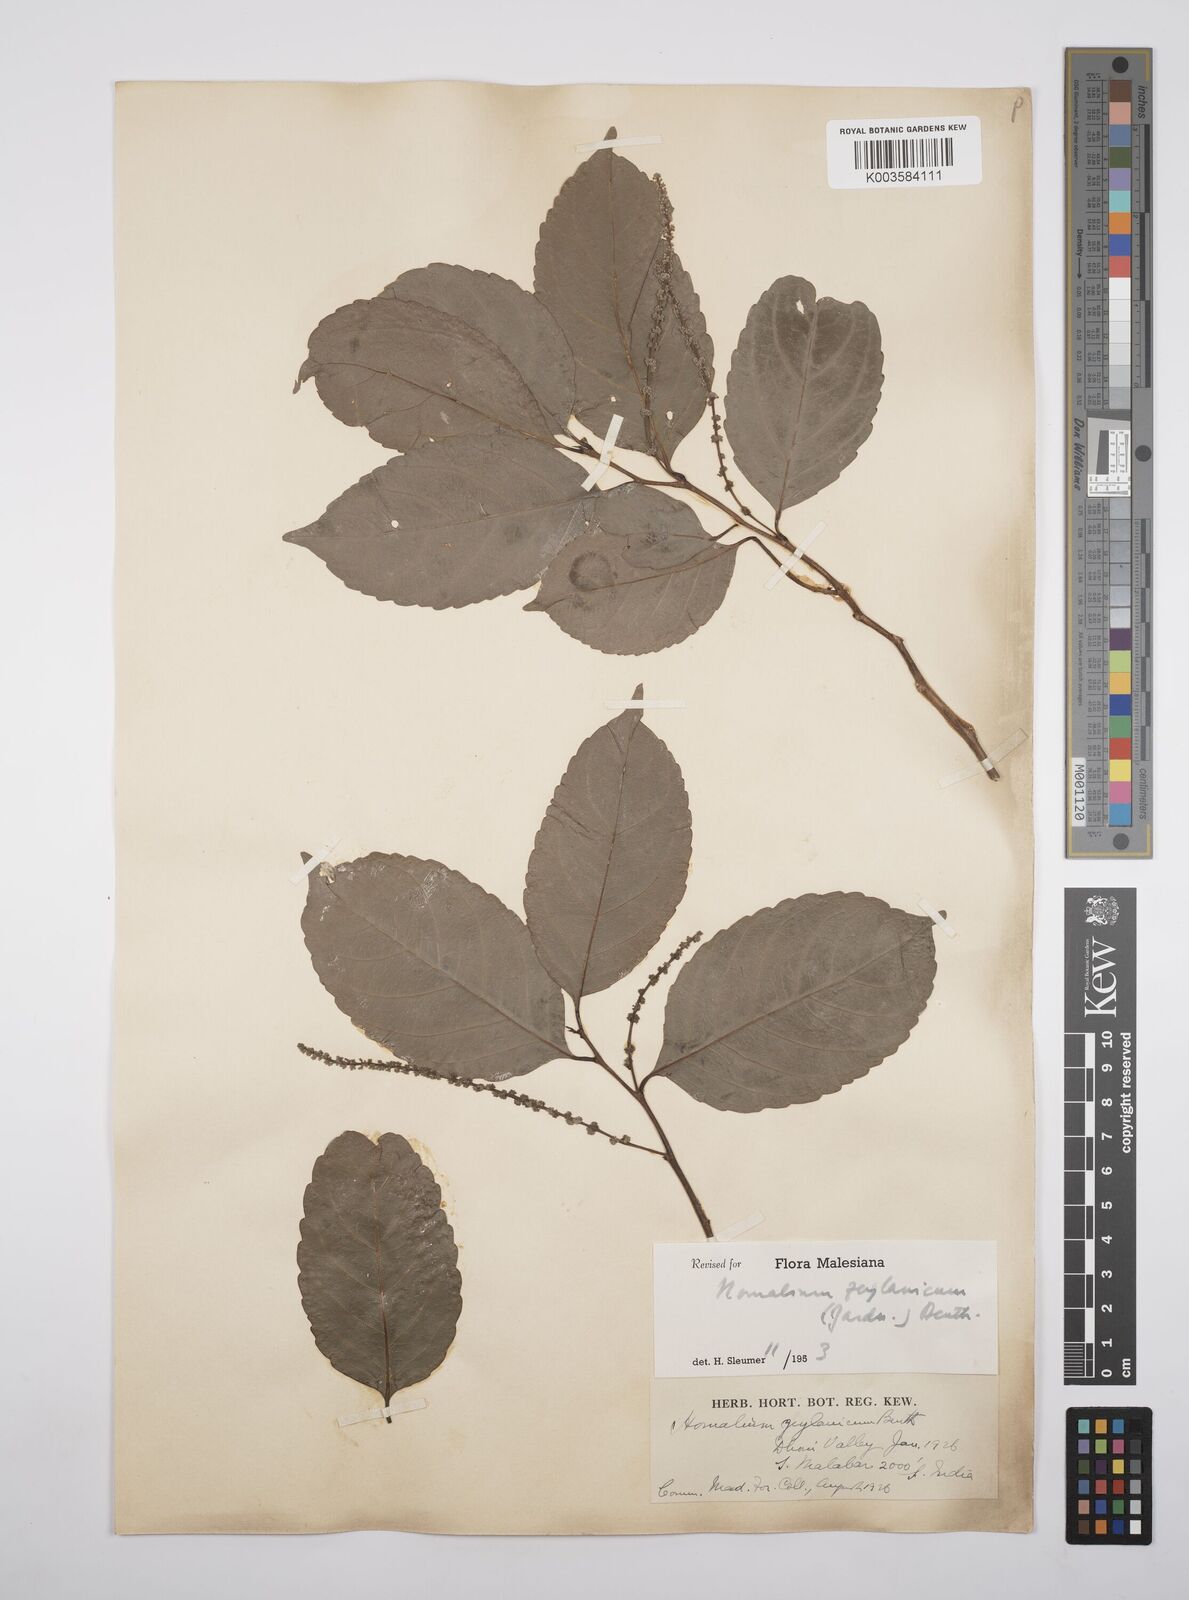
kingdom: Plantae
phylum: Tracheophyta
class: Magnoliopsida
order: Malpighiales
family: Salicaceae
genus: Homalium
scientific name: Homalium ceylanicum
